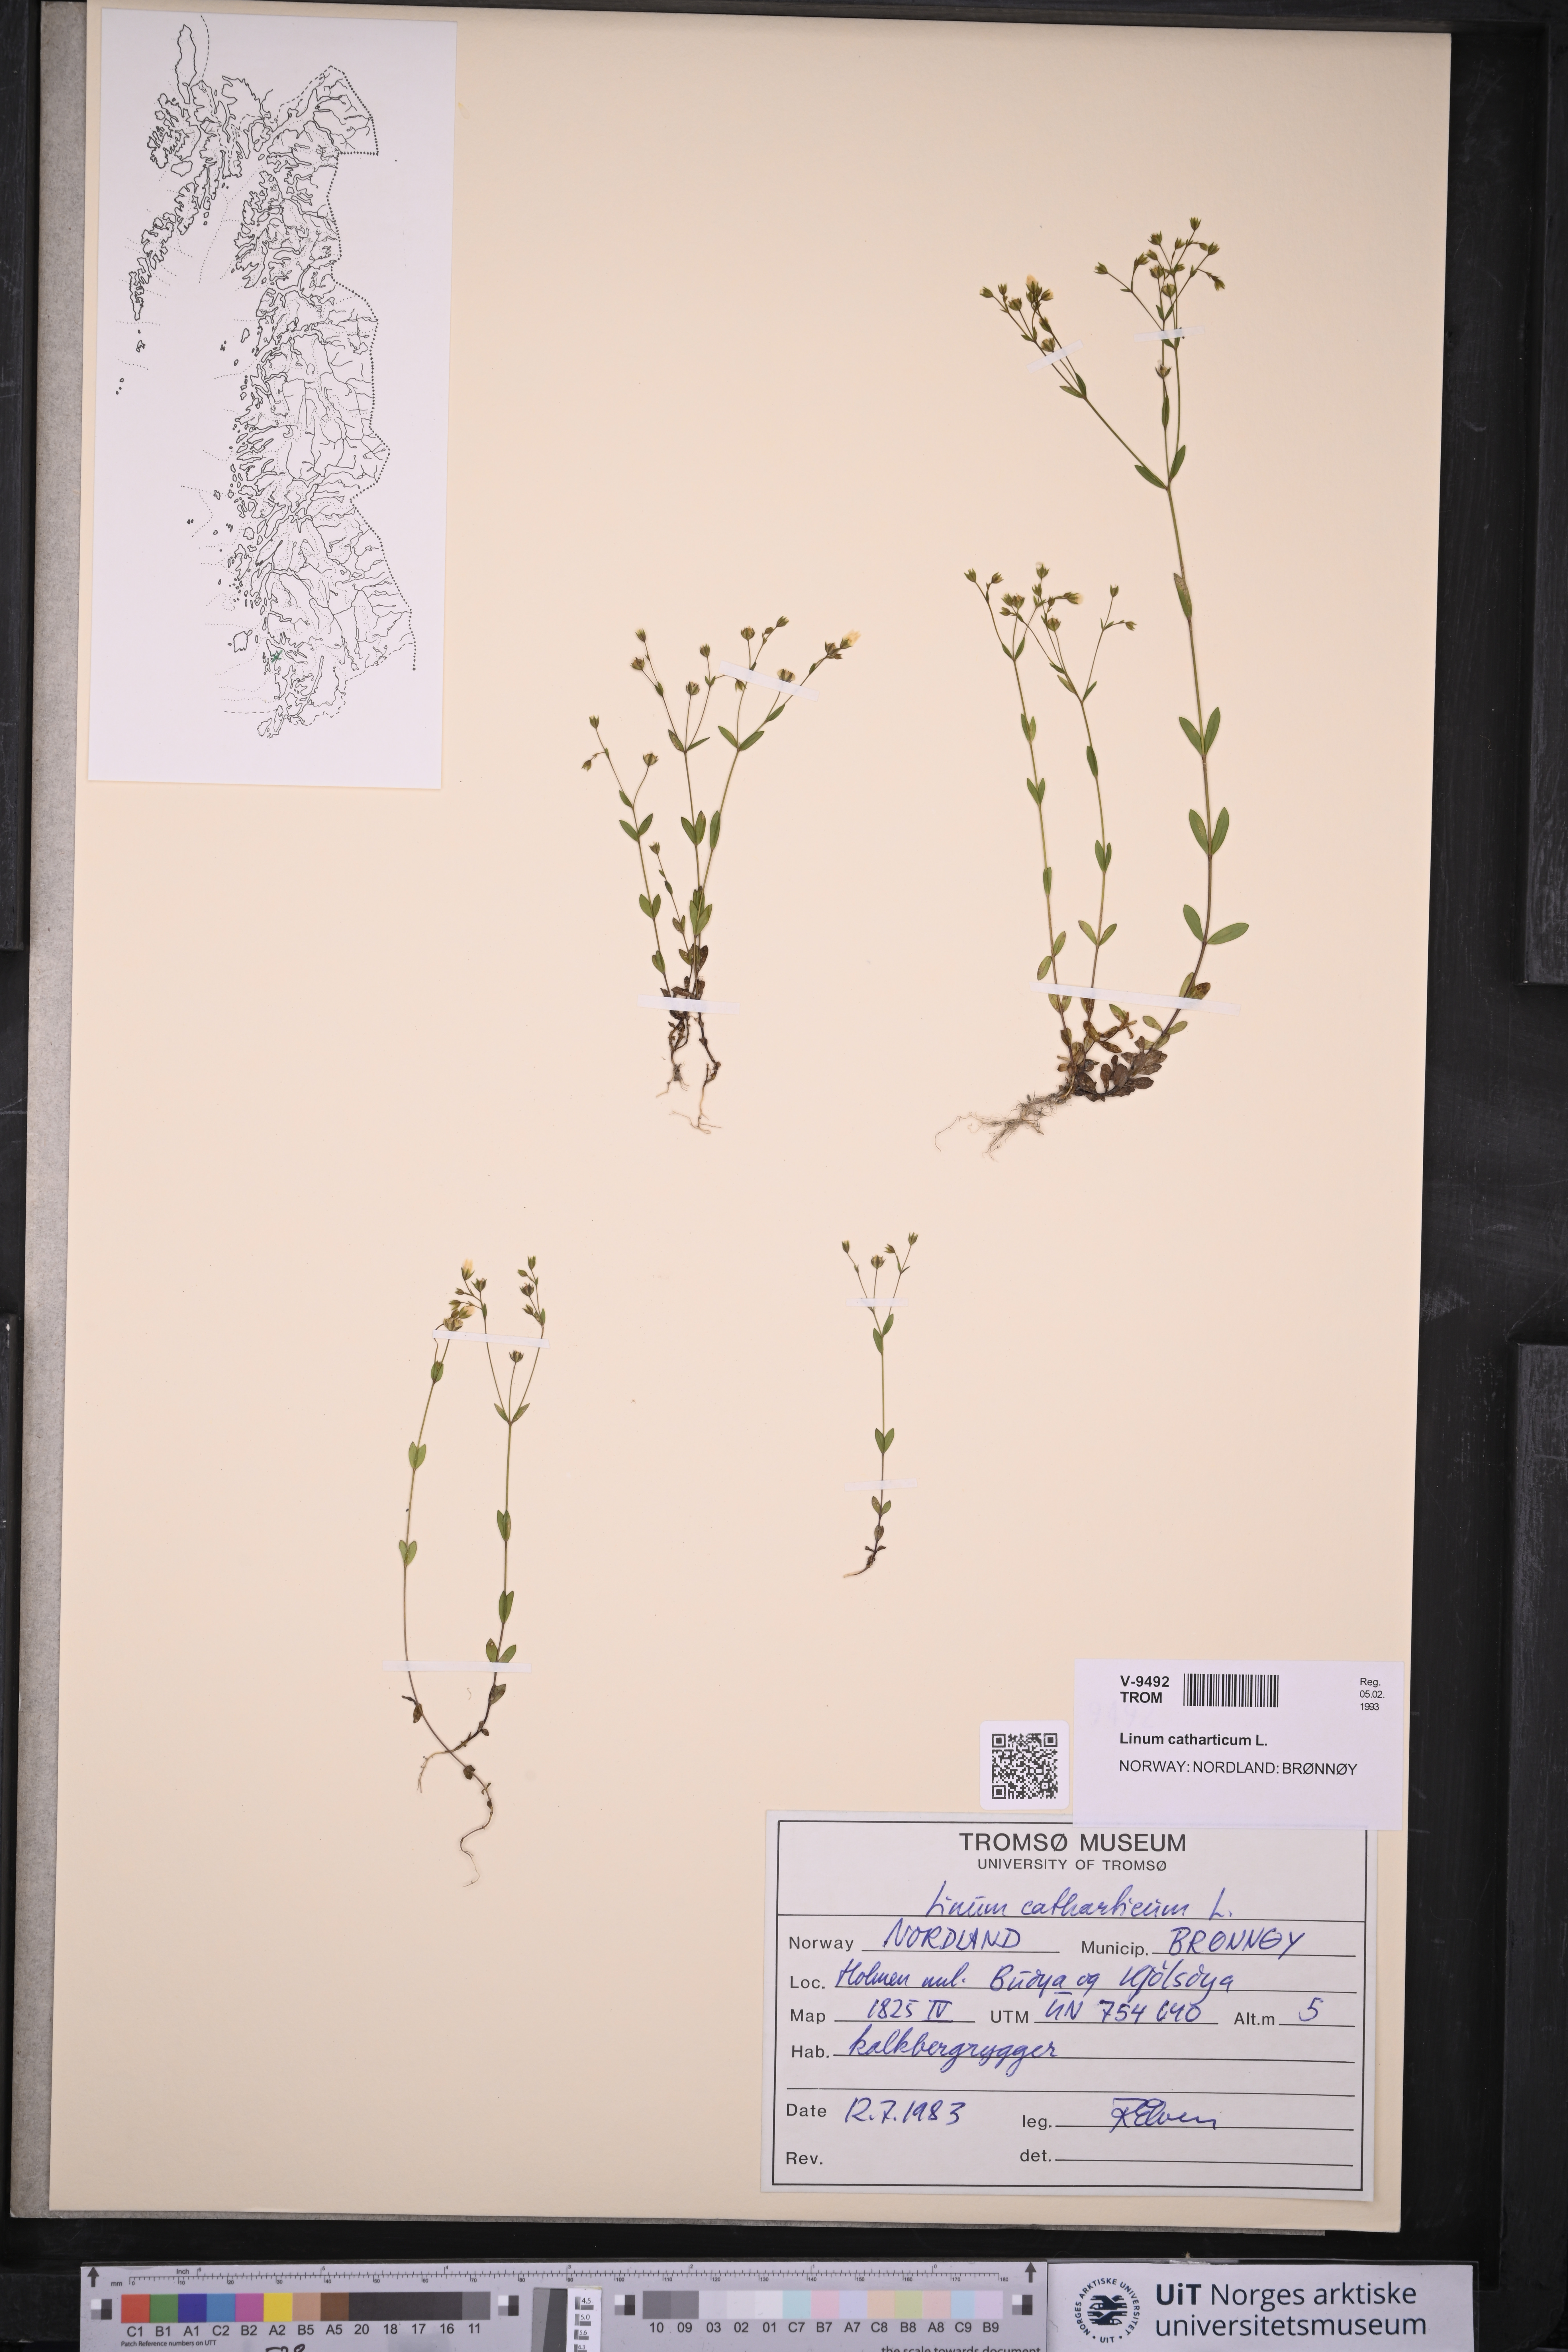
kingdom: Plantae
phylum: Tracheophyta
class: Magnoliopsida
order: Malpighiales
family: Linaceae
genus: Linum
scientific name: Linum catharticum
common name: Fairy flax
